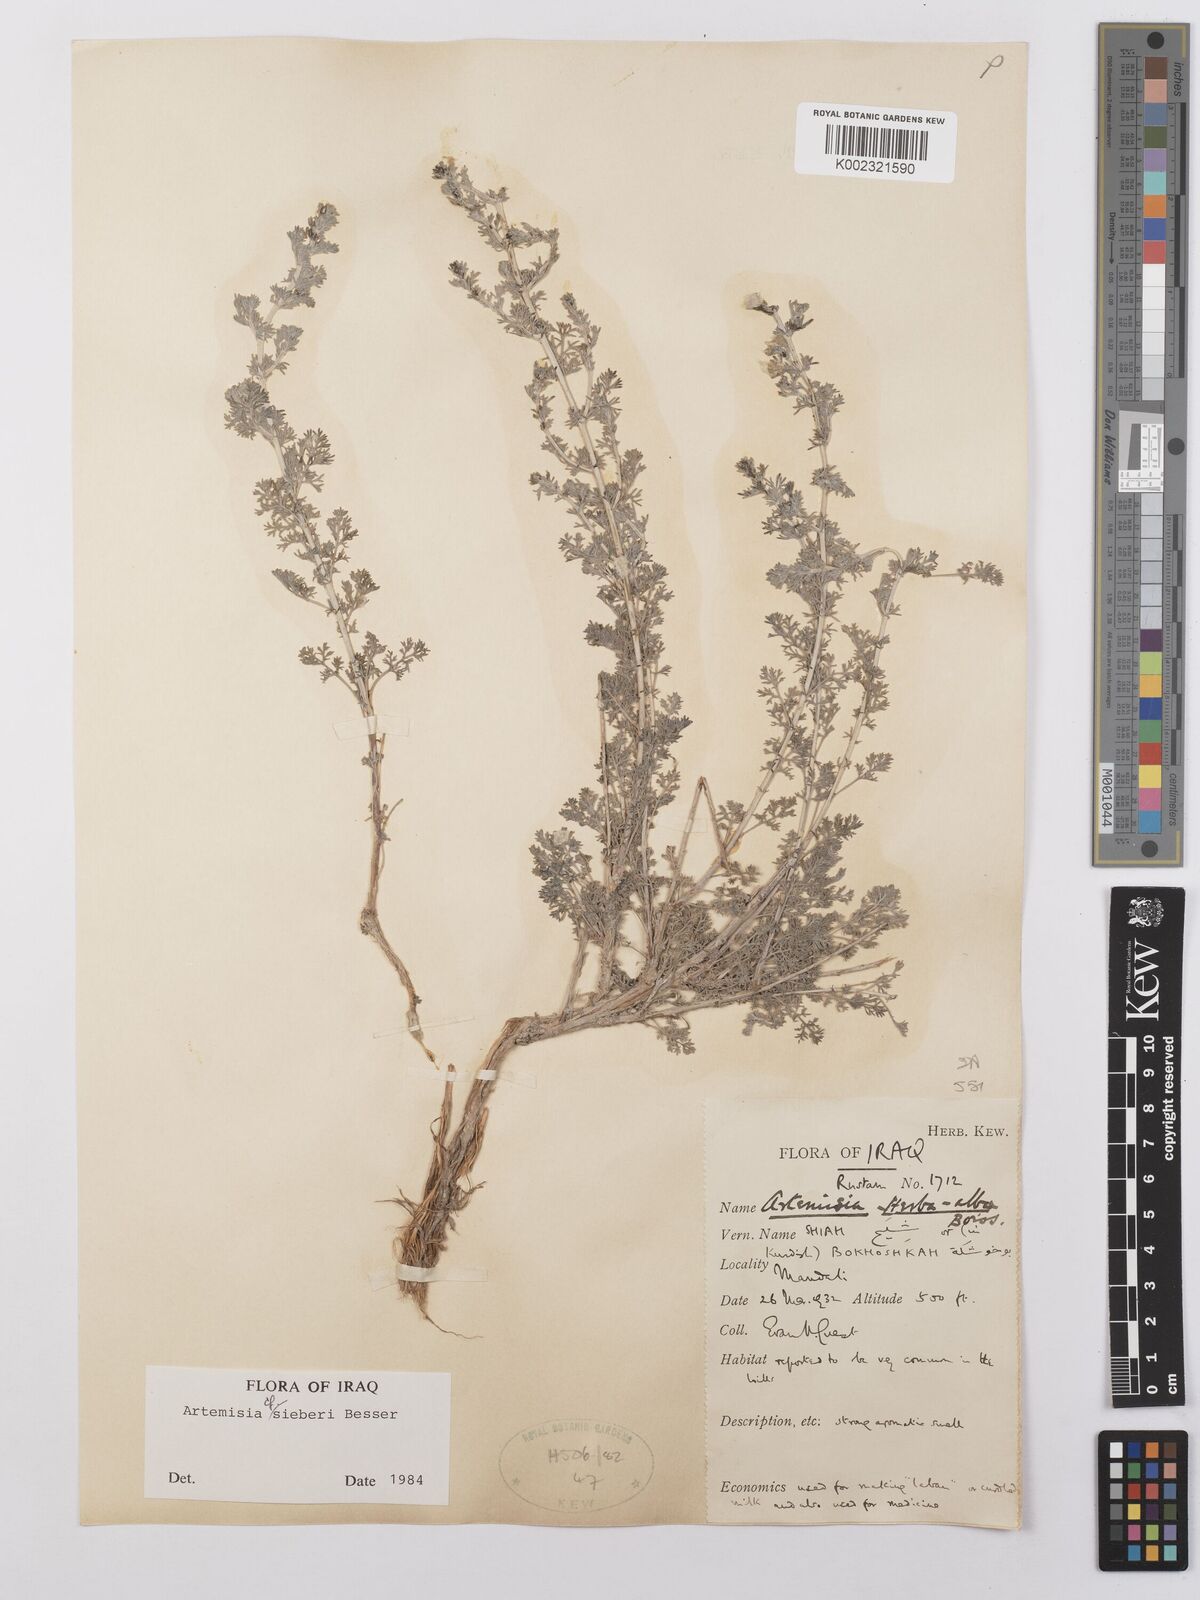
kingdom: Plantae
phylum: Tracheophyta
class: Magnoliopsida
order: Asterales
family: Asteraceae
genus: Artemisia
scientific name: Artemisia sieberi
